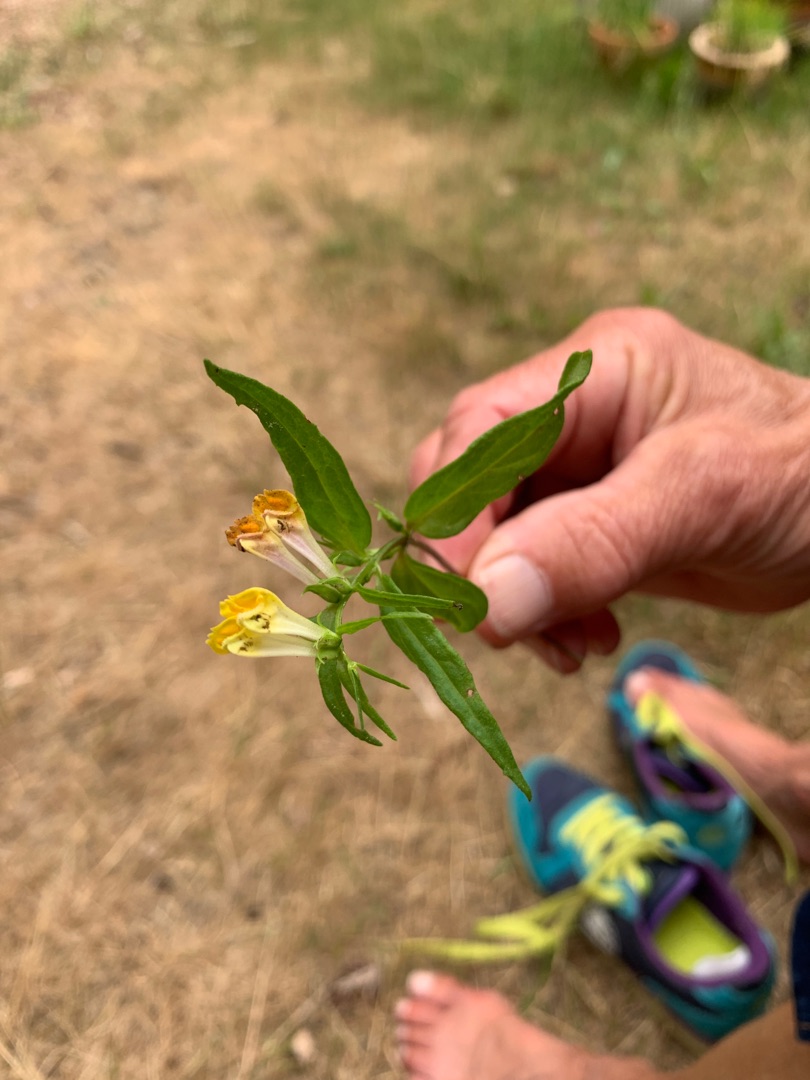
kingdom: Plantae
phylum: Tracheophyta
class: Magnoliopsida
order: Lamiales
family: Orobanchaceae
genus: Melampyrum
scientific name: Melampyrum pratense
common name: Almindelig kohvede
